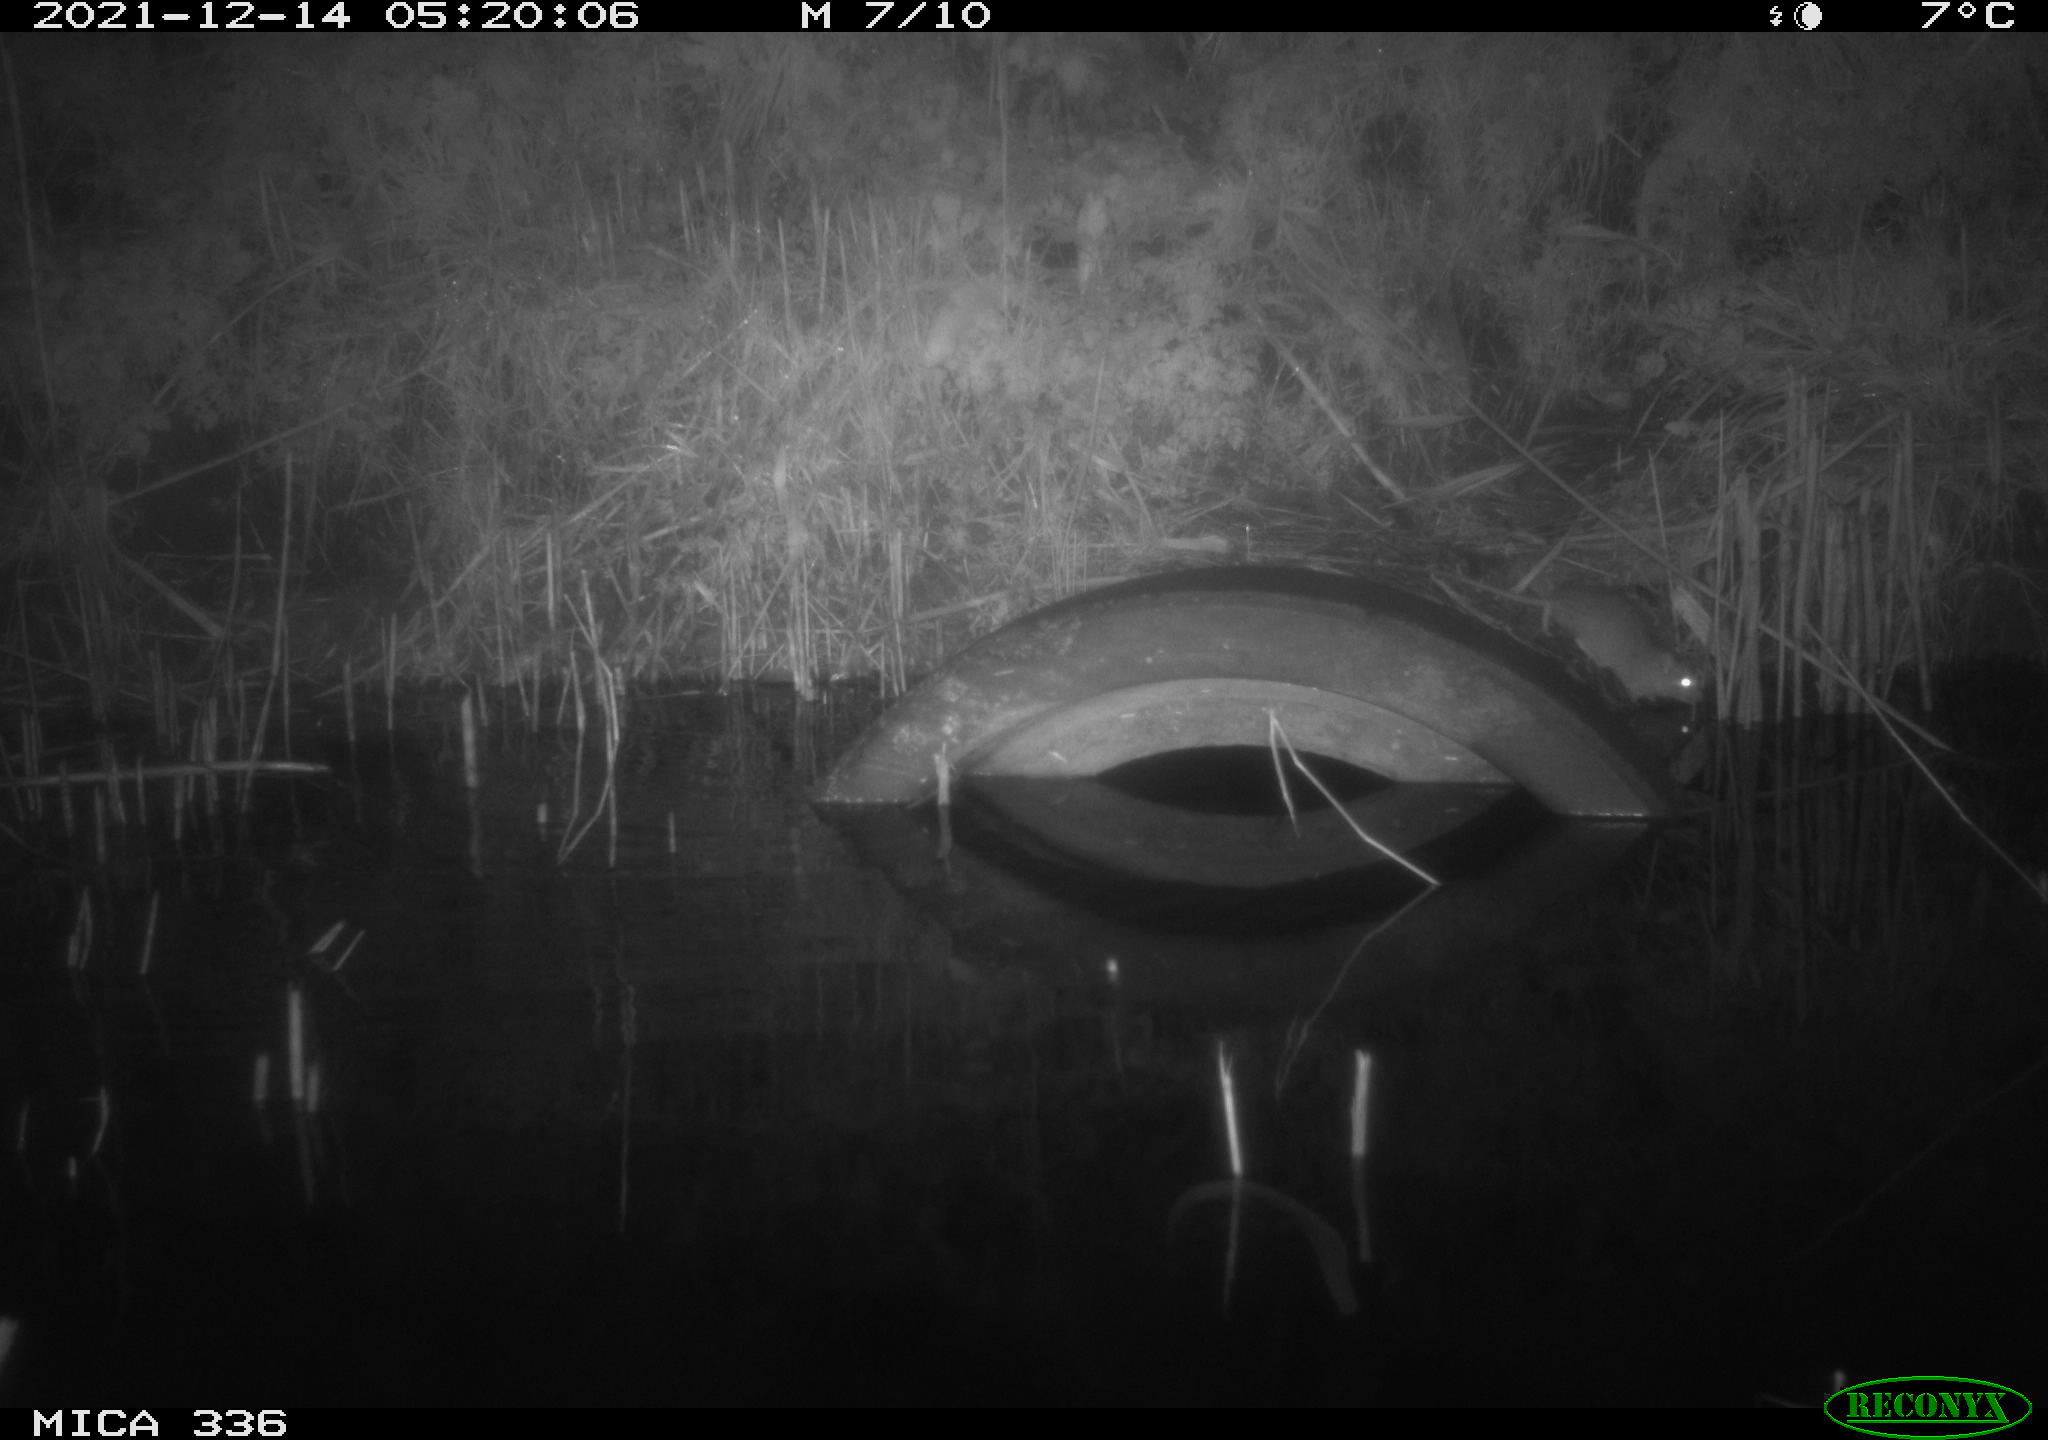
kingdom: Animalia
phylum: Chordata
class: Mammalia
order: Rodentia
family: Muridae
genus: Rattus
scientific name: Rattus norvegicus
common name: Brown rat
